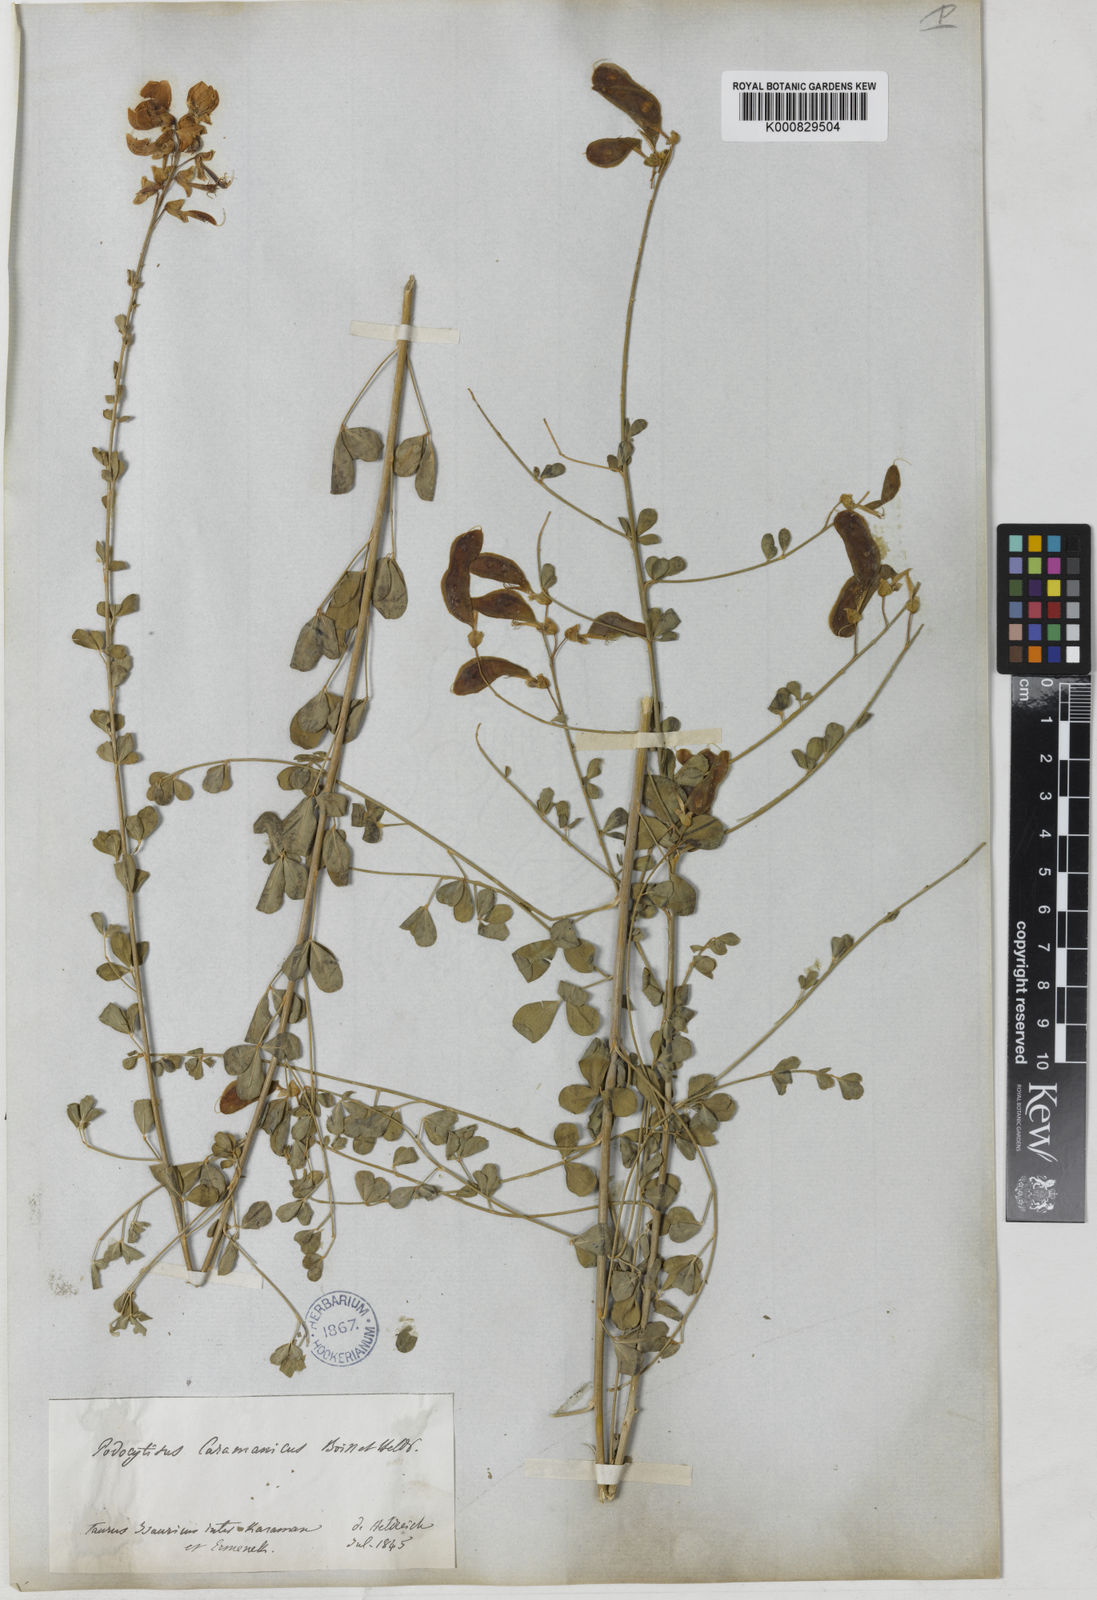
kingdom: Plantae
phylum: Tracheophyta
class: Magnoliopsida
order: Fabales
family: Fabaceae
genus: Podocytisus
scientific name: Podocytisus caramanicus
